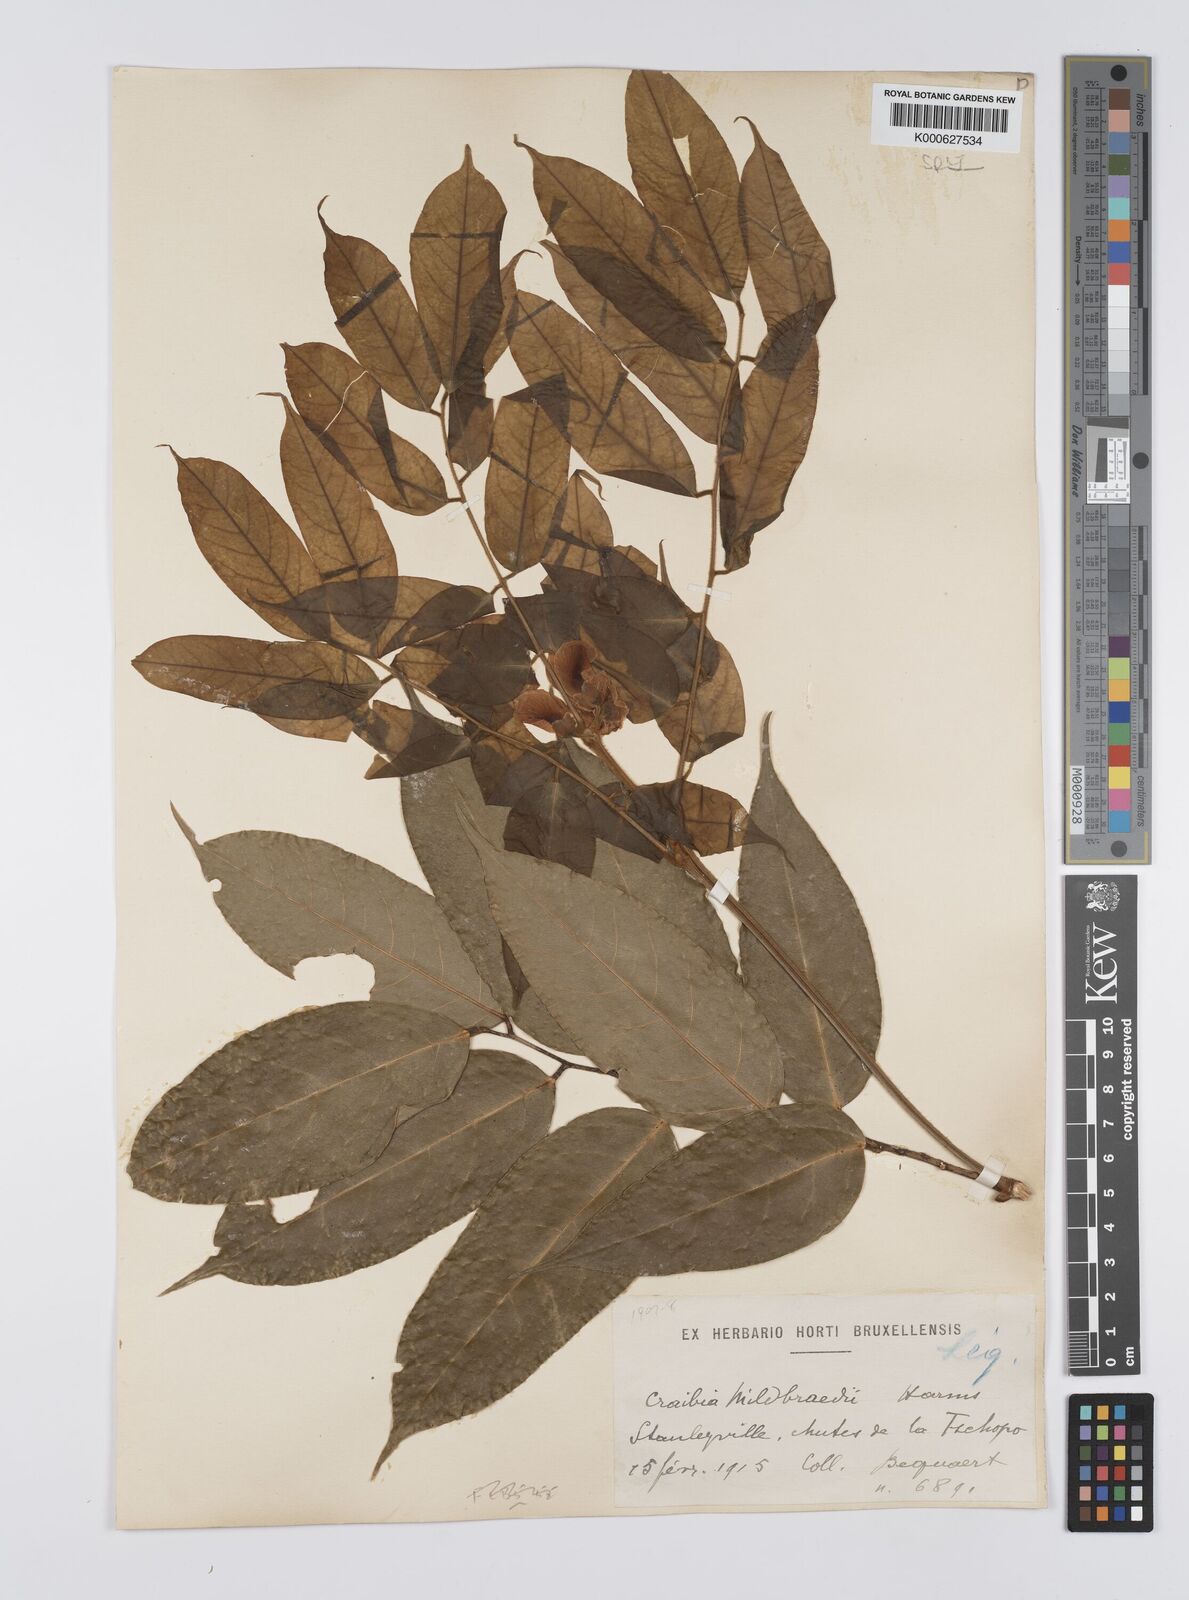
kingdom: Plantae
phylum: Tracheophyta
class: Magnoliopsida
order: Fabales
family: Fabaceae
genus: Craibia
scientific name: Craibia grandiflora
